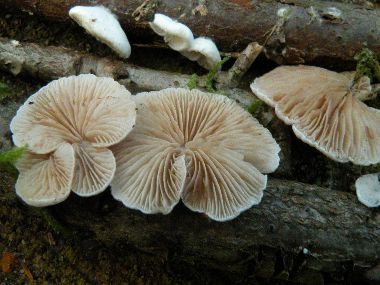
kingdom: Fungi
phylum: Basidiomycota
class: Agaricomycetes
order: Agaricales
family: Crepidotaceae
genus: Crepidotus
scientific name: Crepidotus variabilis
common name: forskelligformet muslingesvamp
